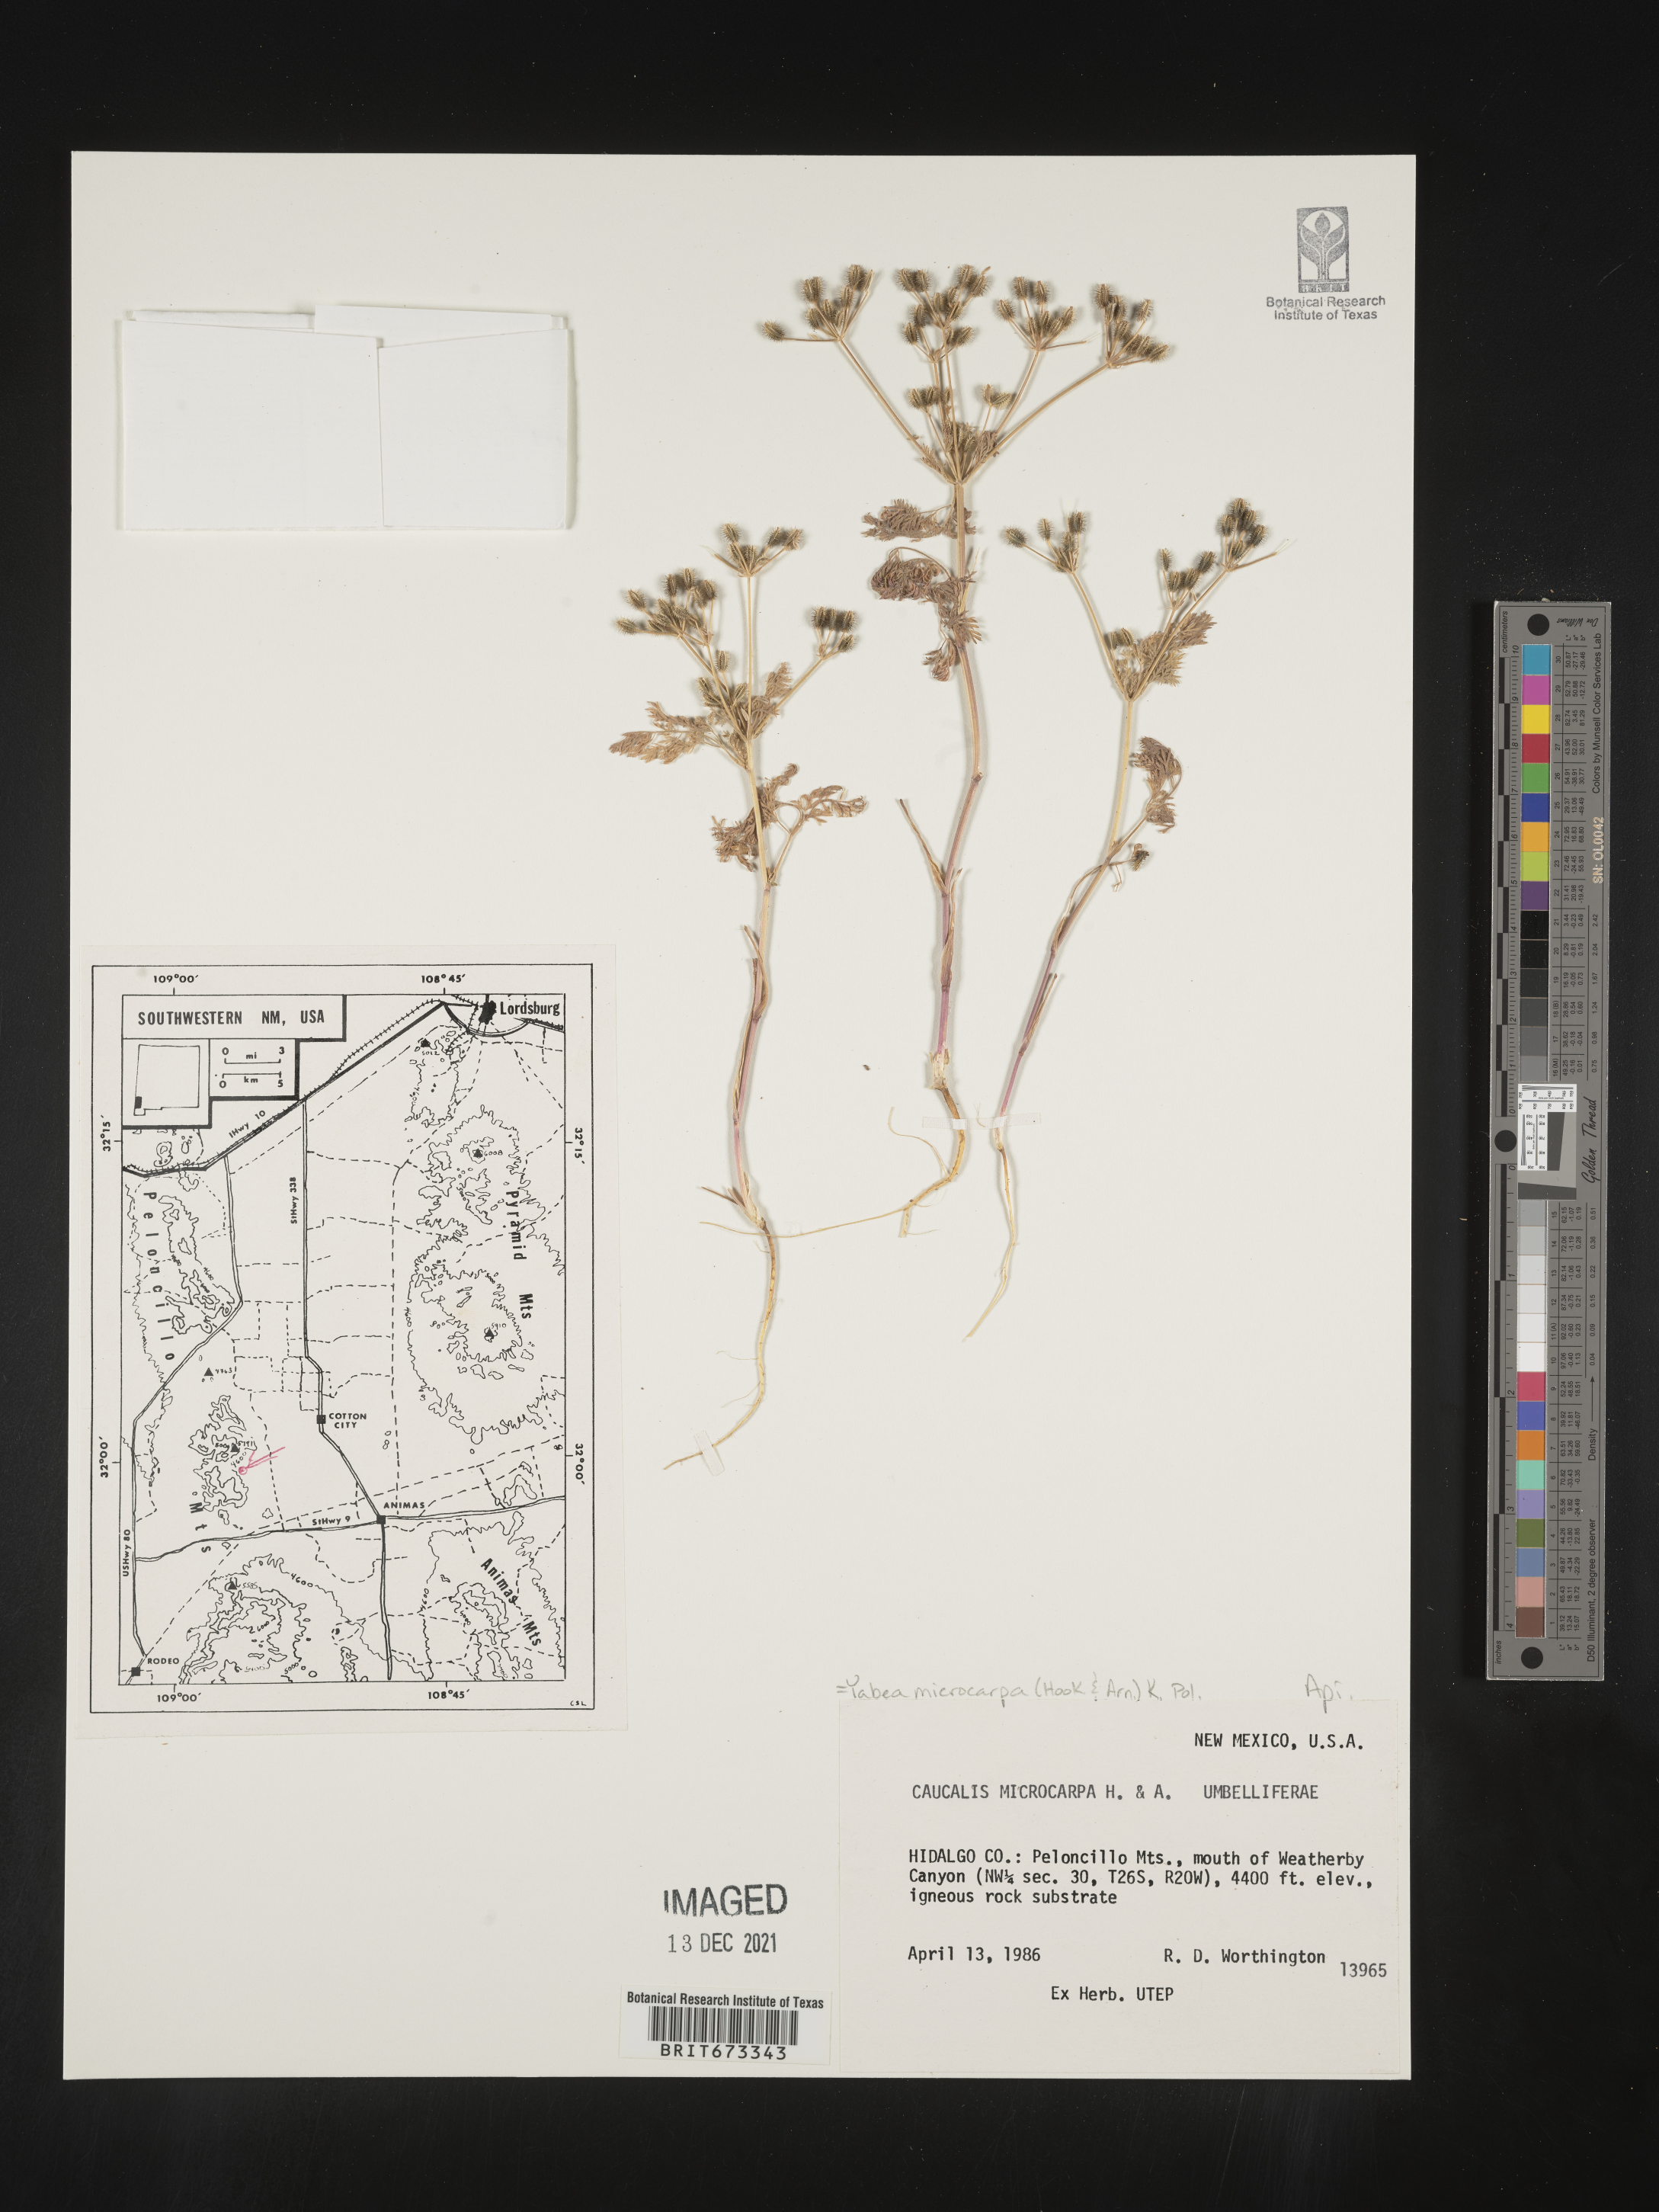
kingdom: Plantae
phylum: Tracheophyta
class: Magnoliopsida
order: Apiales
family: Apiaceae
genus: Yabea
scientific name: Yabea microcarpa
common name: False carrot
